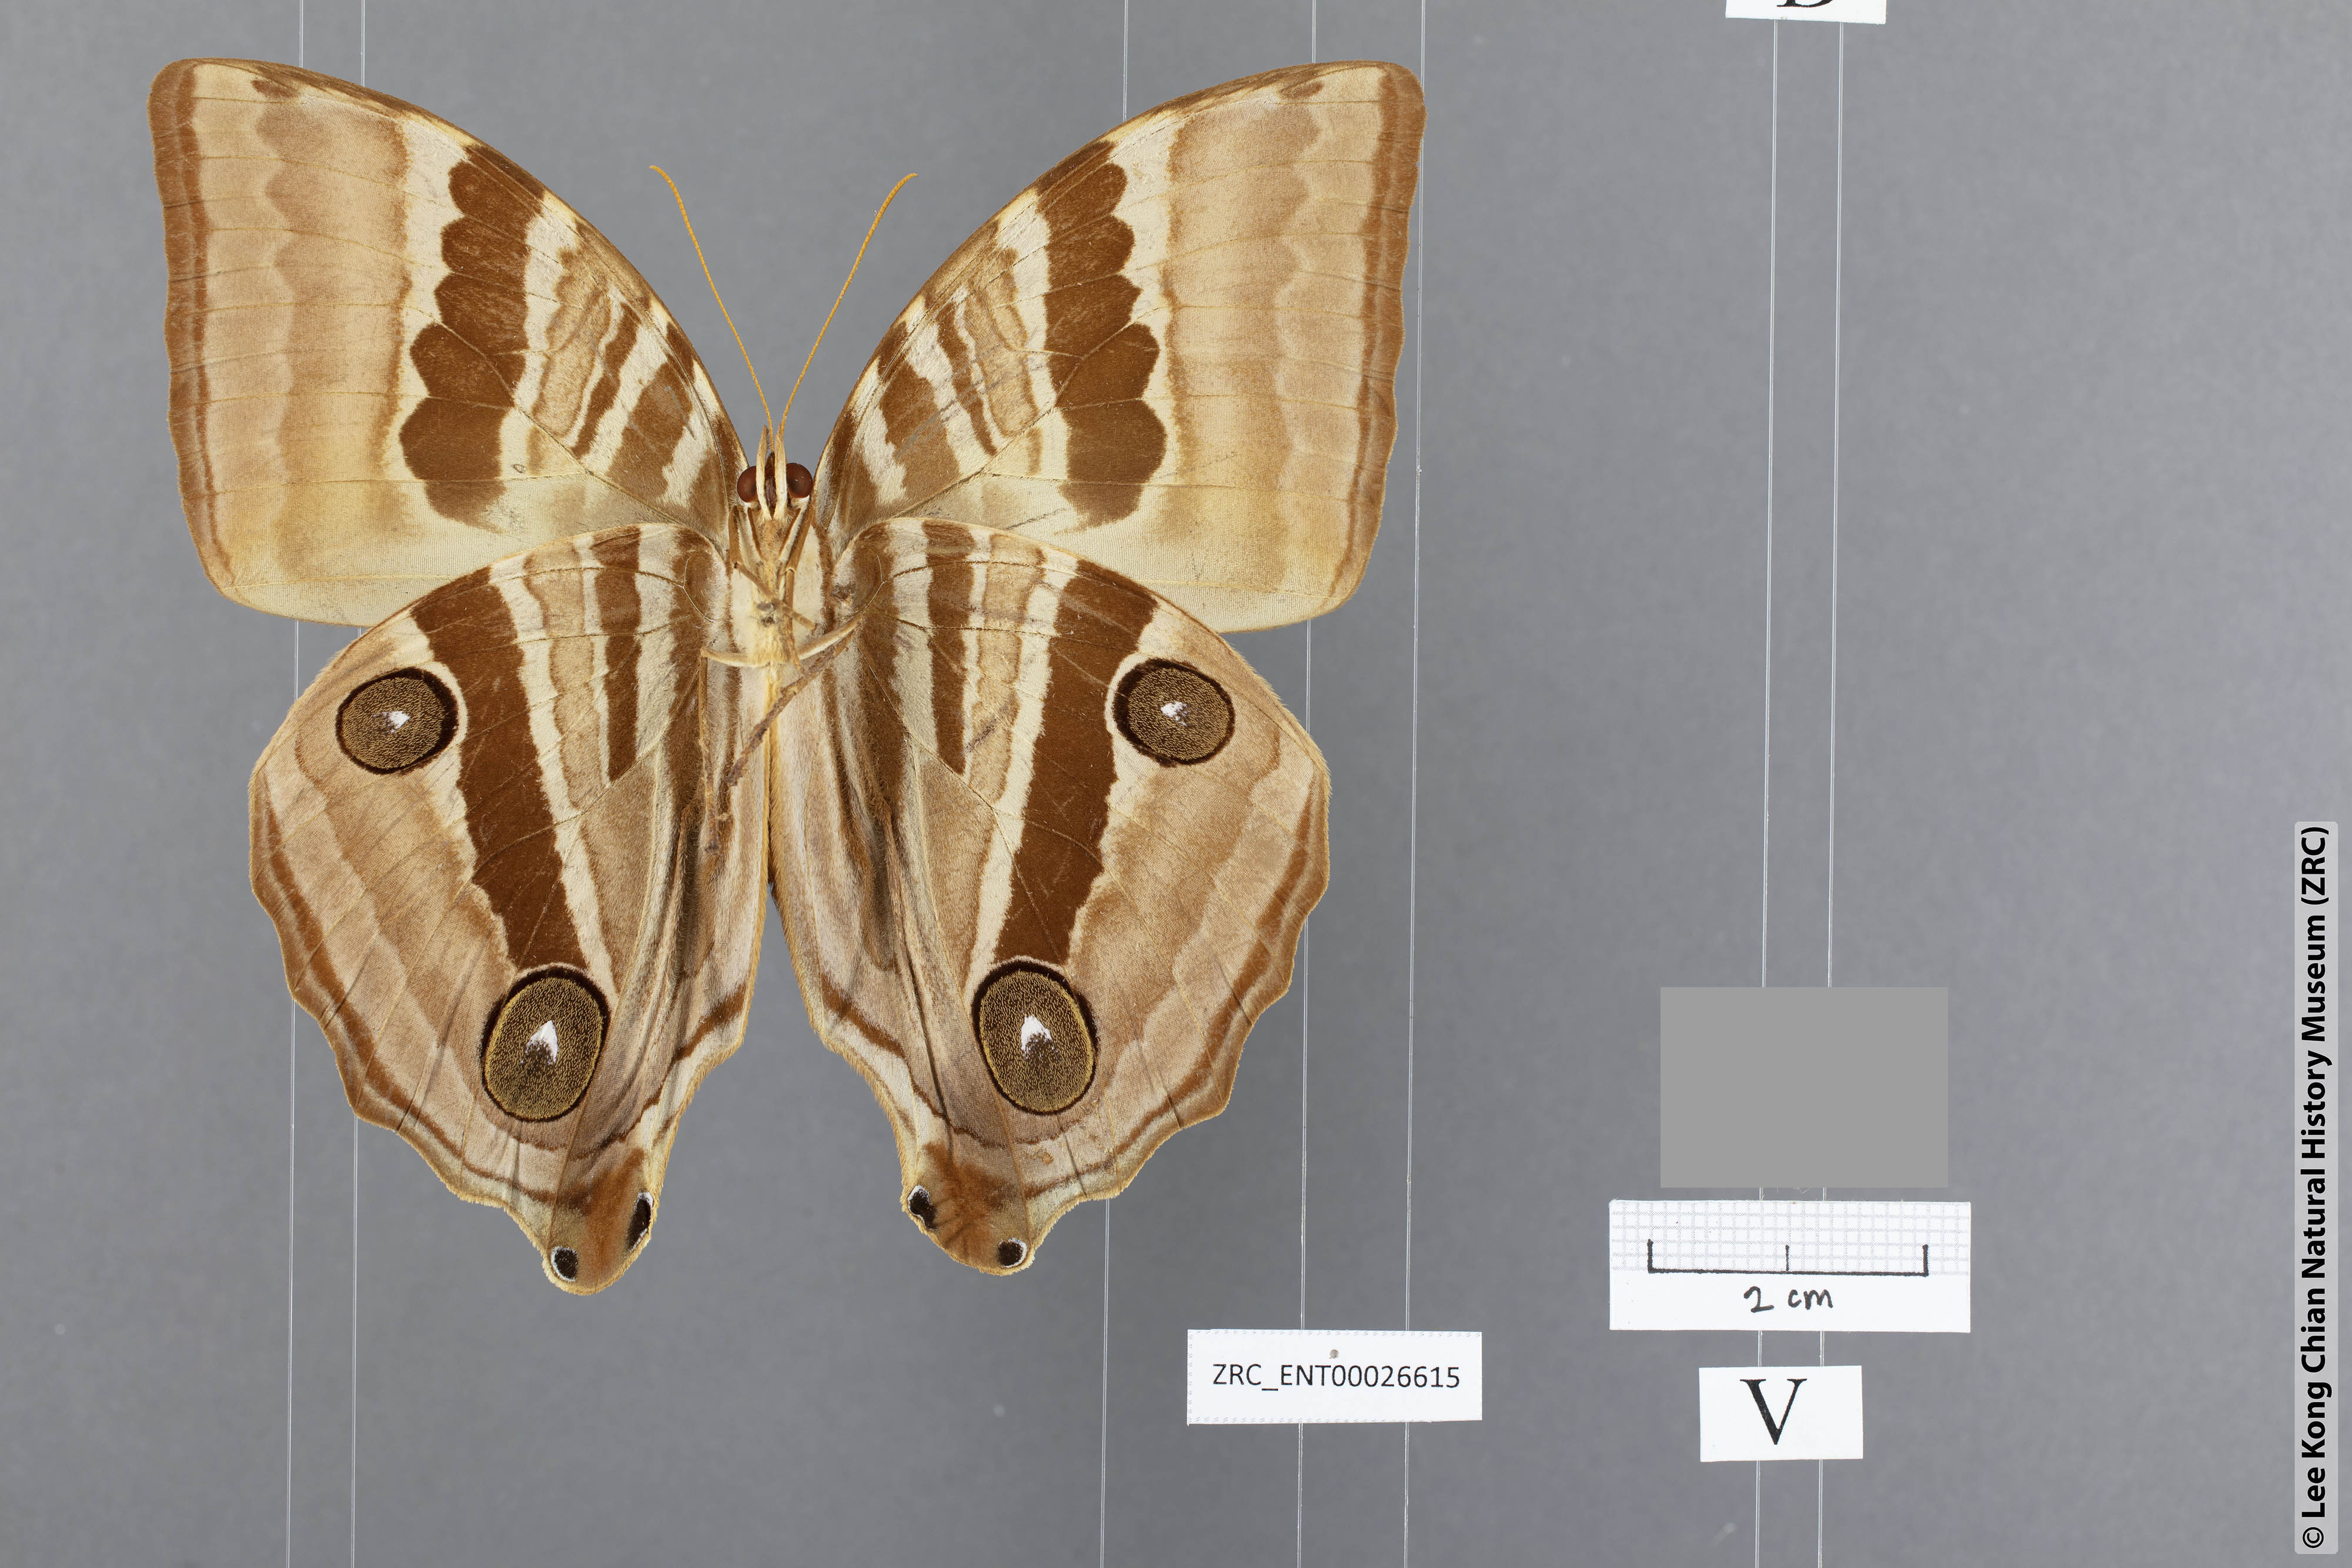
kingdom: Animalia
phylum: Arthropoda
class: Insecta
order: Lepidoptera
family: Nymphalidae
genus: Amathusia
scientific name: Amathusia
